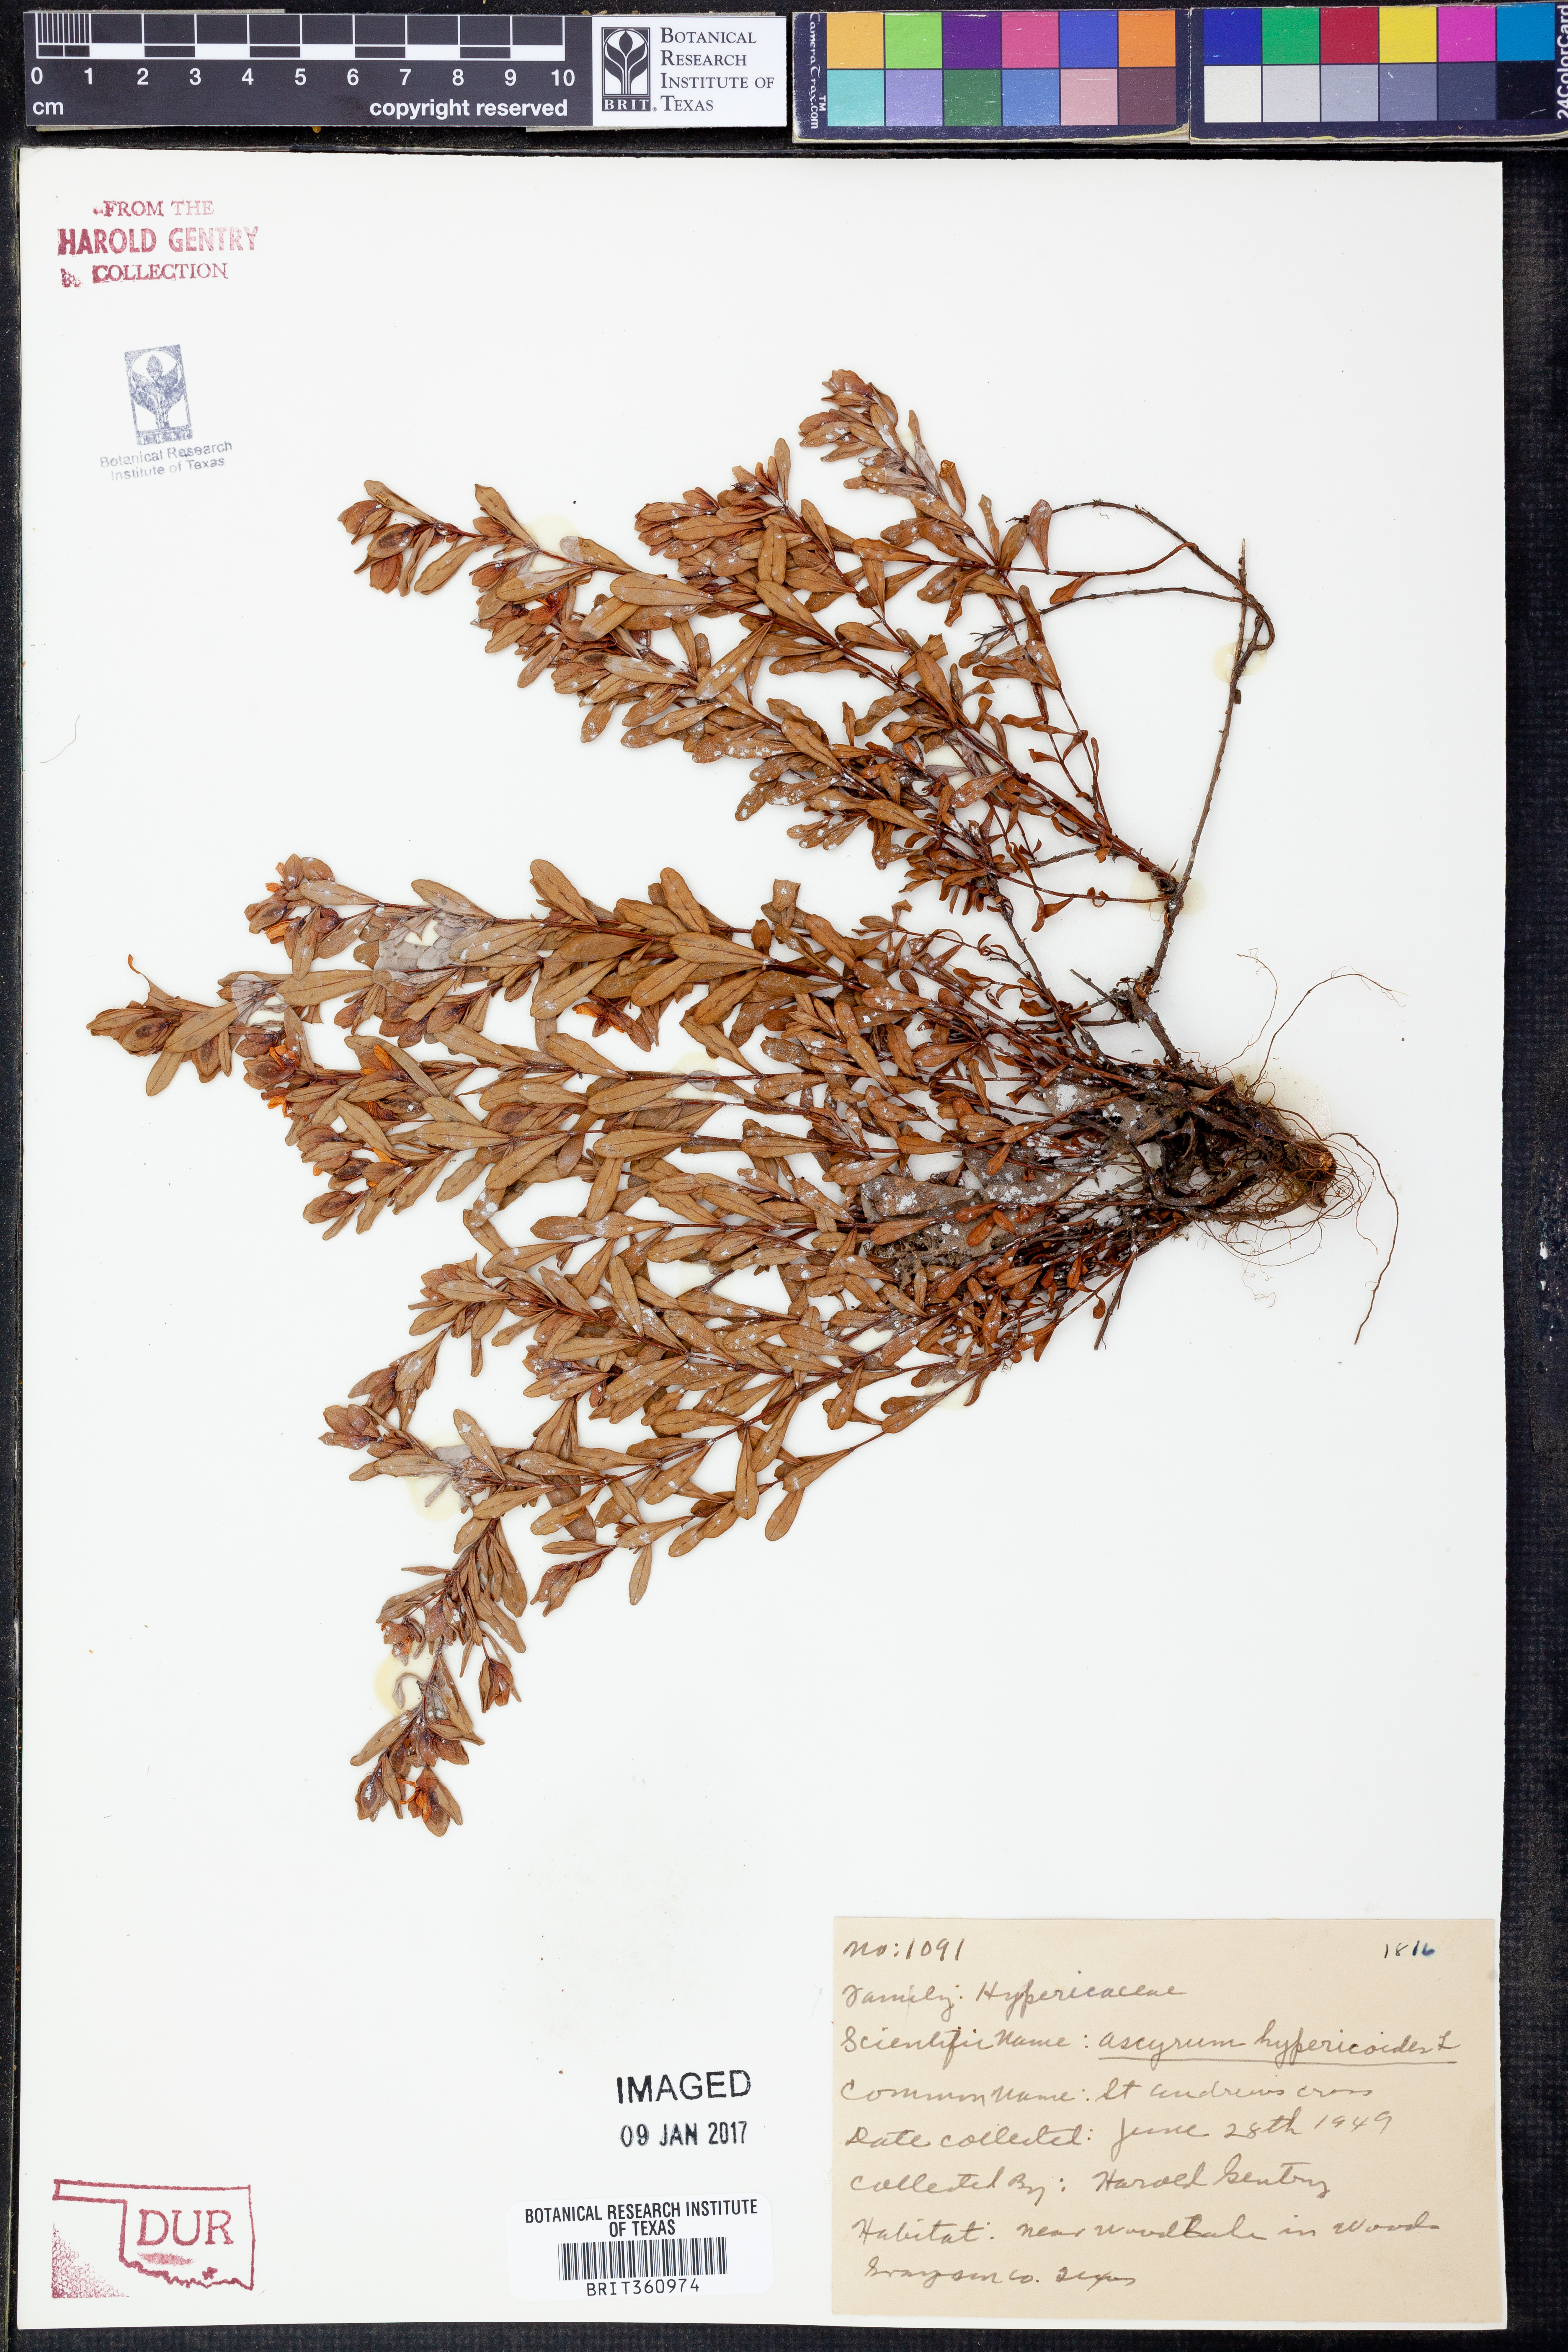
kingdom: Plantae
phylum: Tracheophyta
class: Magnoliopsida
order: Malpighiales
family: Hypericaceae
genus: Hypericum
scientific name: Hypericum hypericoides
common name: St. andrew's cross
